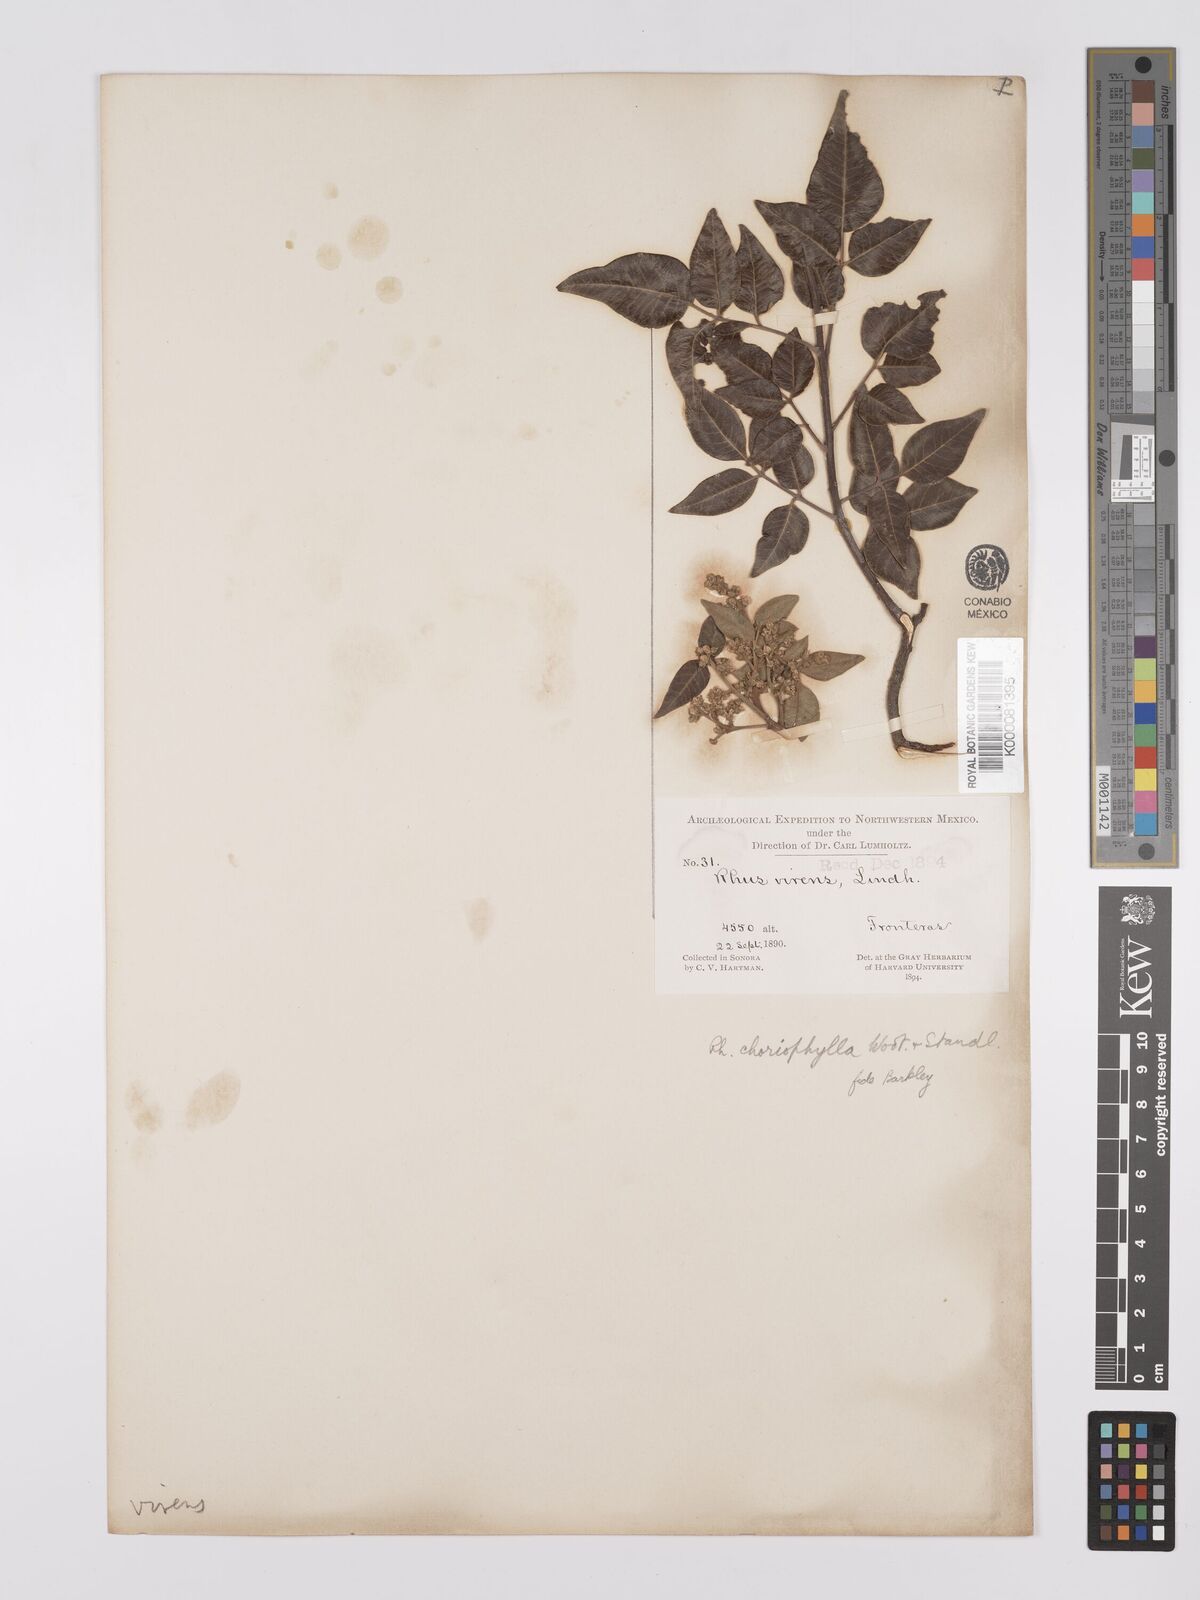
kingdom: Plantae
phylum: Tracheophyta
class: Magnoliopsida
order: Sapindales
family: Anacardiaceae
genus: Rhus
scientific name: Rhus virens
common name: Evergreen sumac
